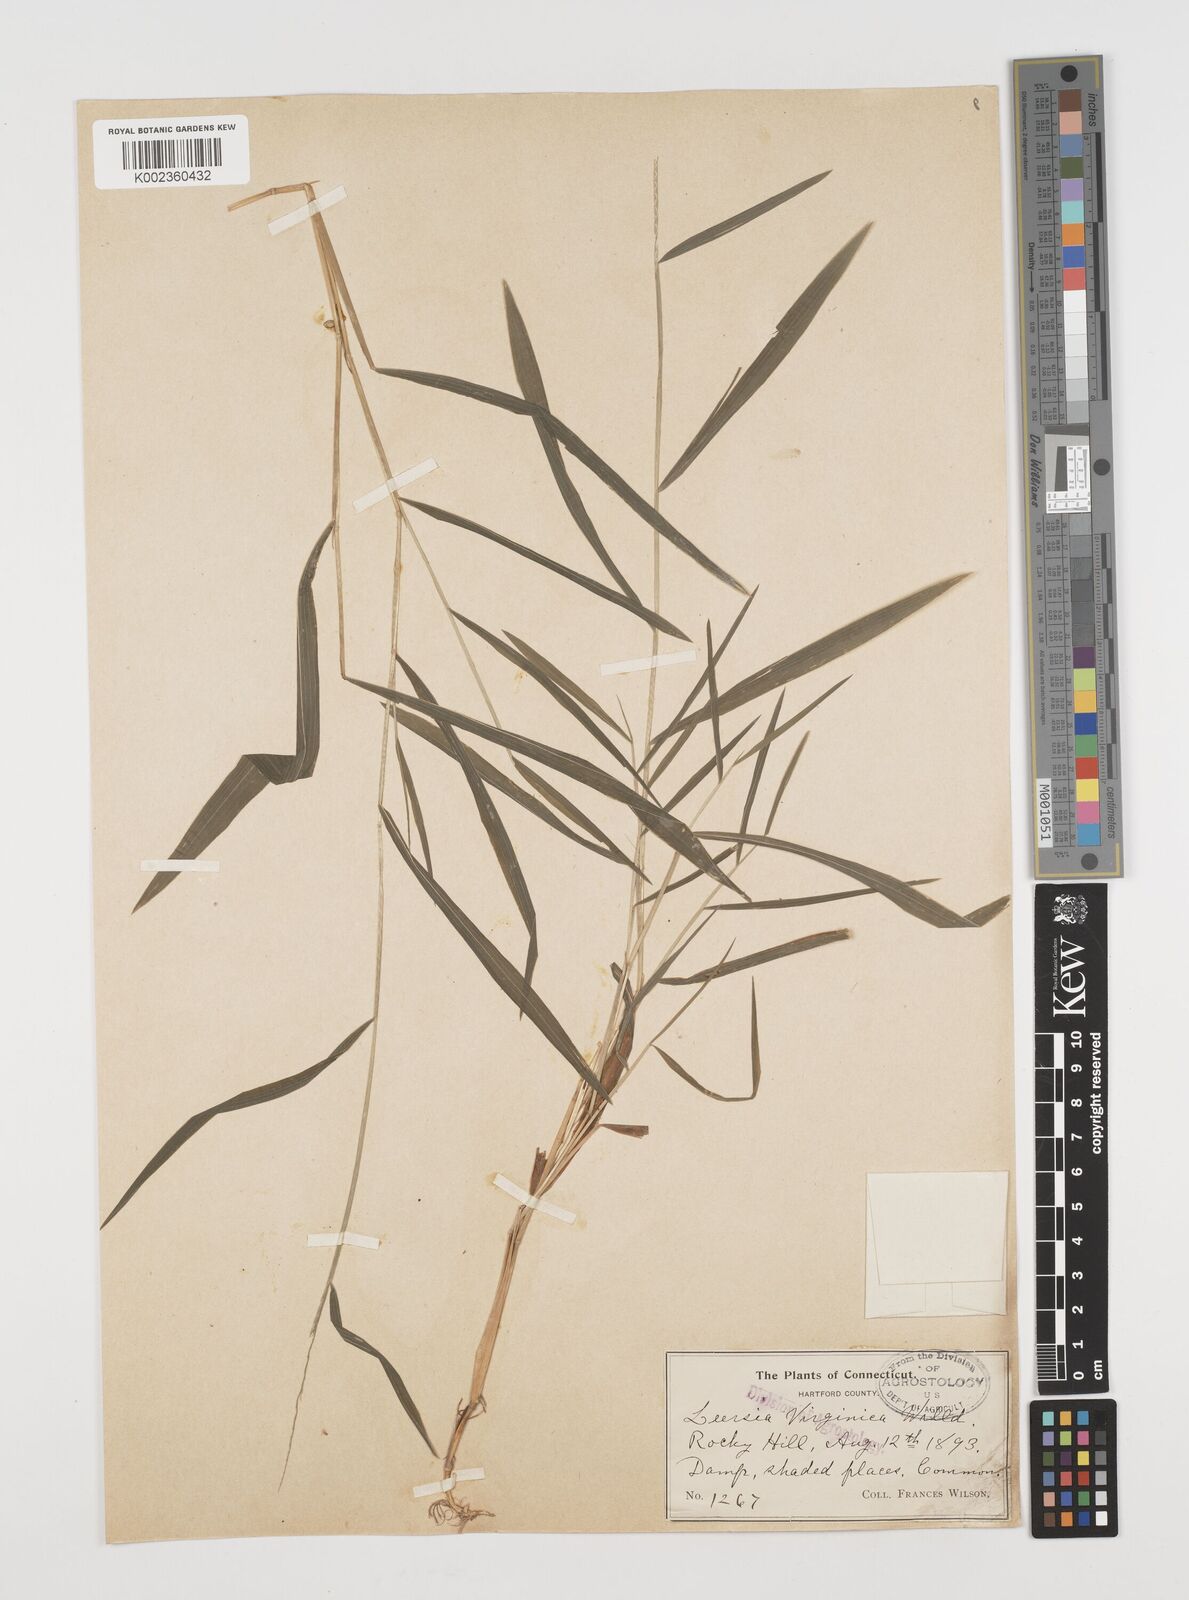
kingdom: Plantae
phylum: Tracheophyta
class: Liliopsida
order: Poales
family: Poaceae
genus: Leersia
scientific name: Leersia virginica
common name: White cutgrass
